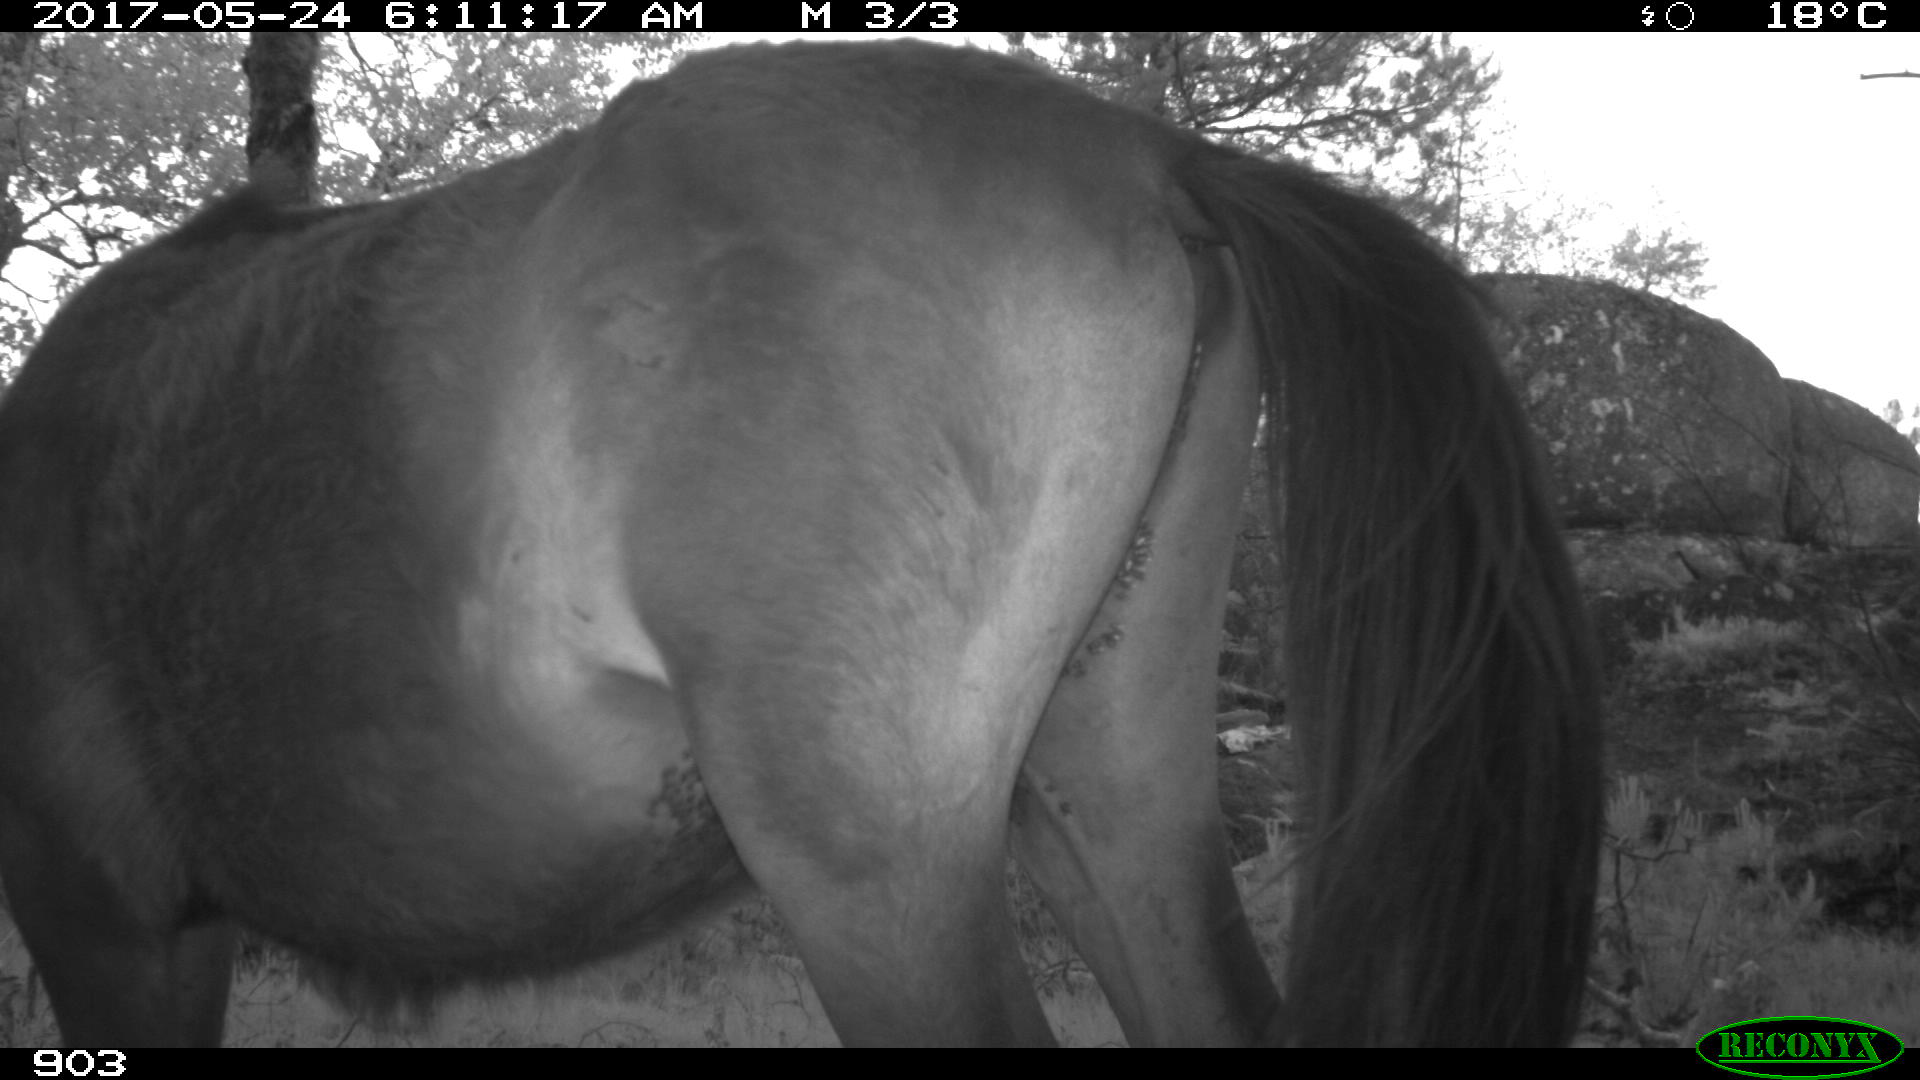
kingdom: Animalia
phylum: Chordata
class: Mammalia
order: Perissodactyla
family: Equidae
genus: Equus
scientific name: Equus caballus
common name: Horse
